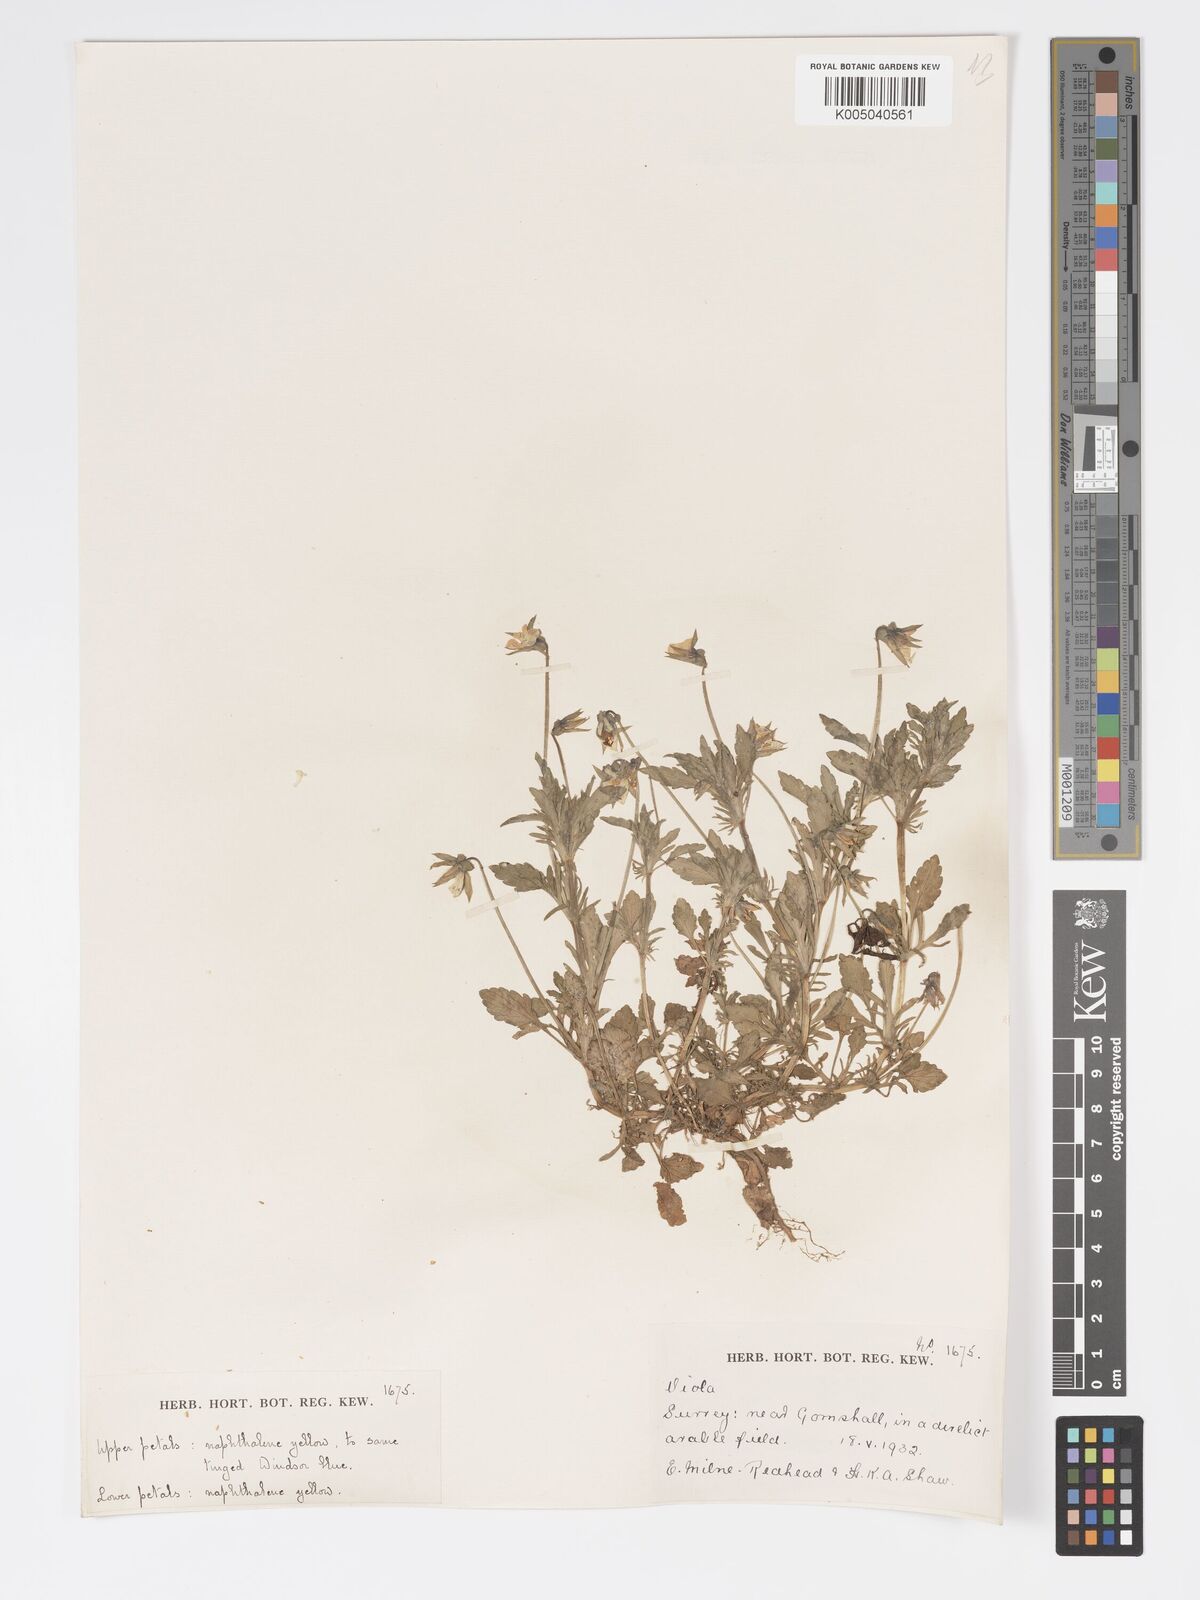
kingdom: Plantae
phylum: Tracheophyta
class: Magnoliopsida
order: Malpighiales
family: Violaceae
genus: Viola
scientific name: Viola
